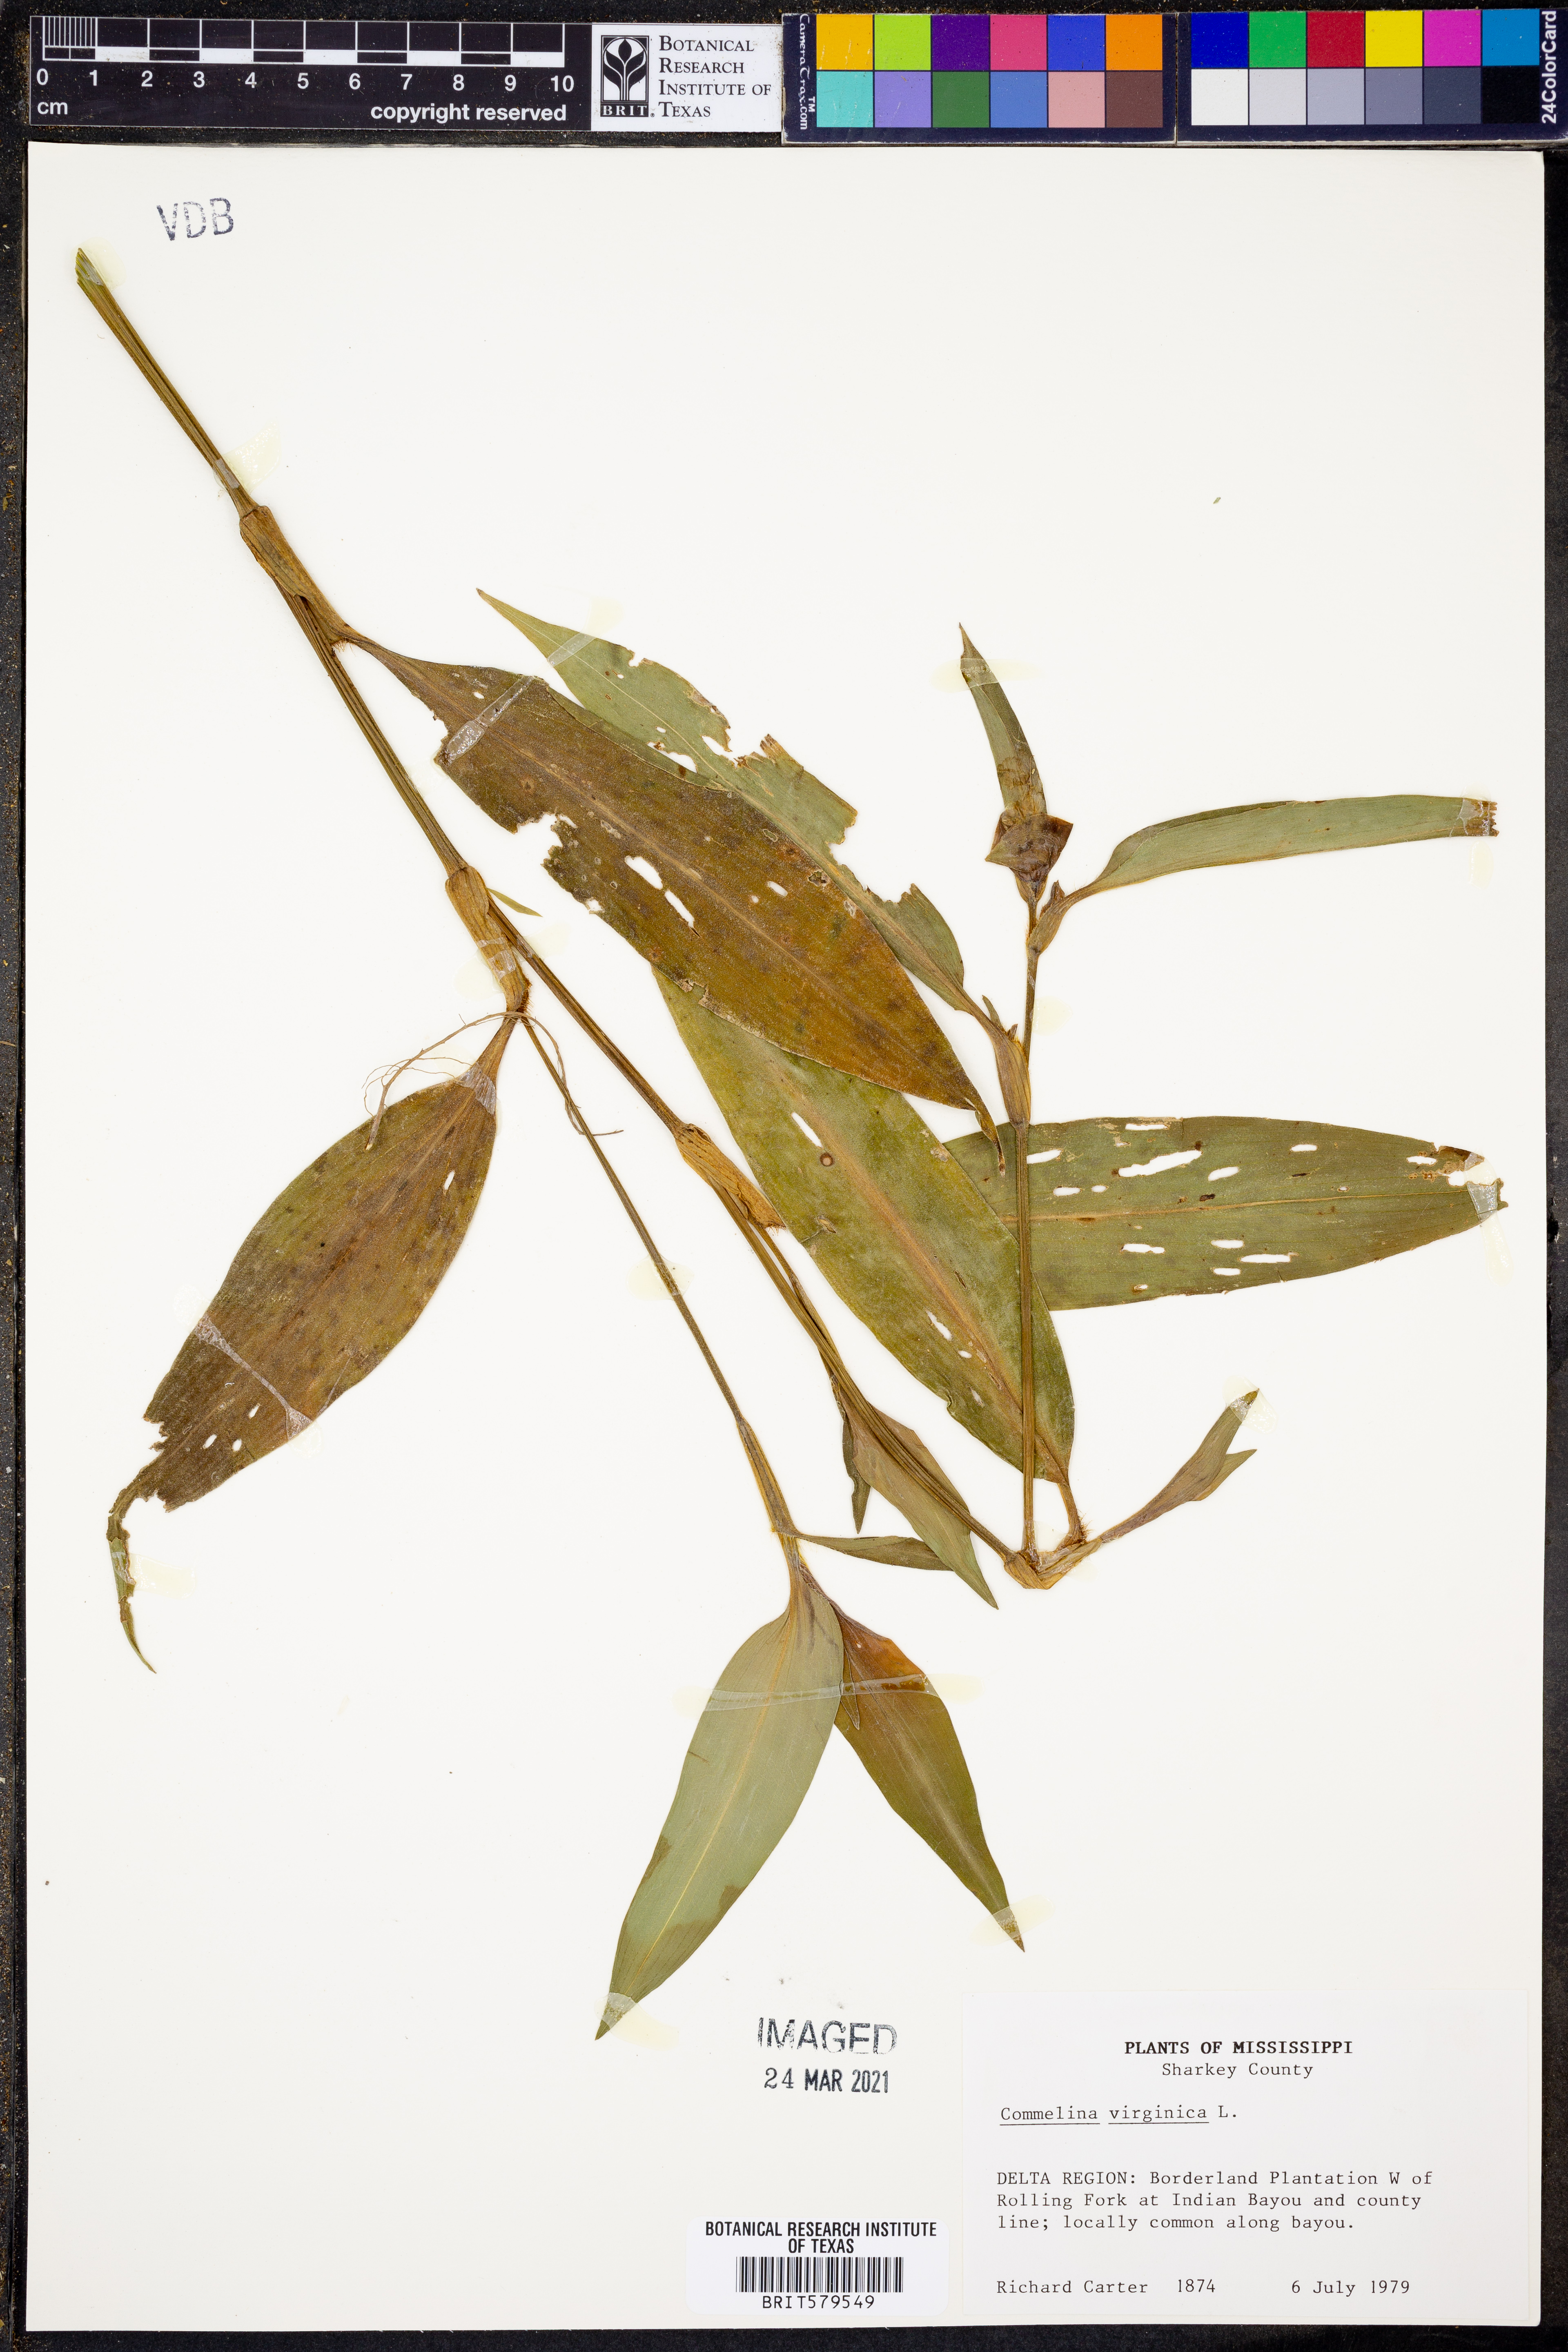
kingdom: Plantae
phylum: Tracheophyta
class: Liliopsida
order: Commelinales
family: Commelinaceae
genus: Commelina
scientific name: Commelina virginica
